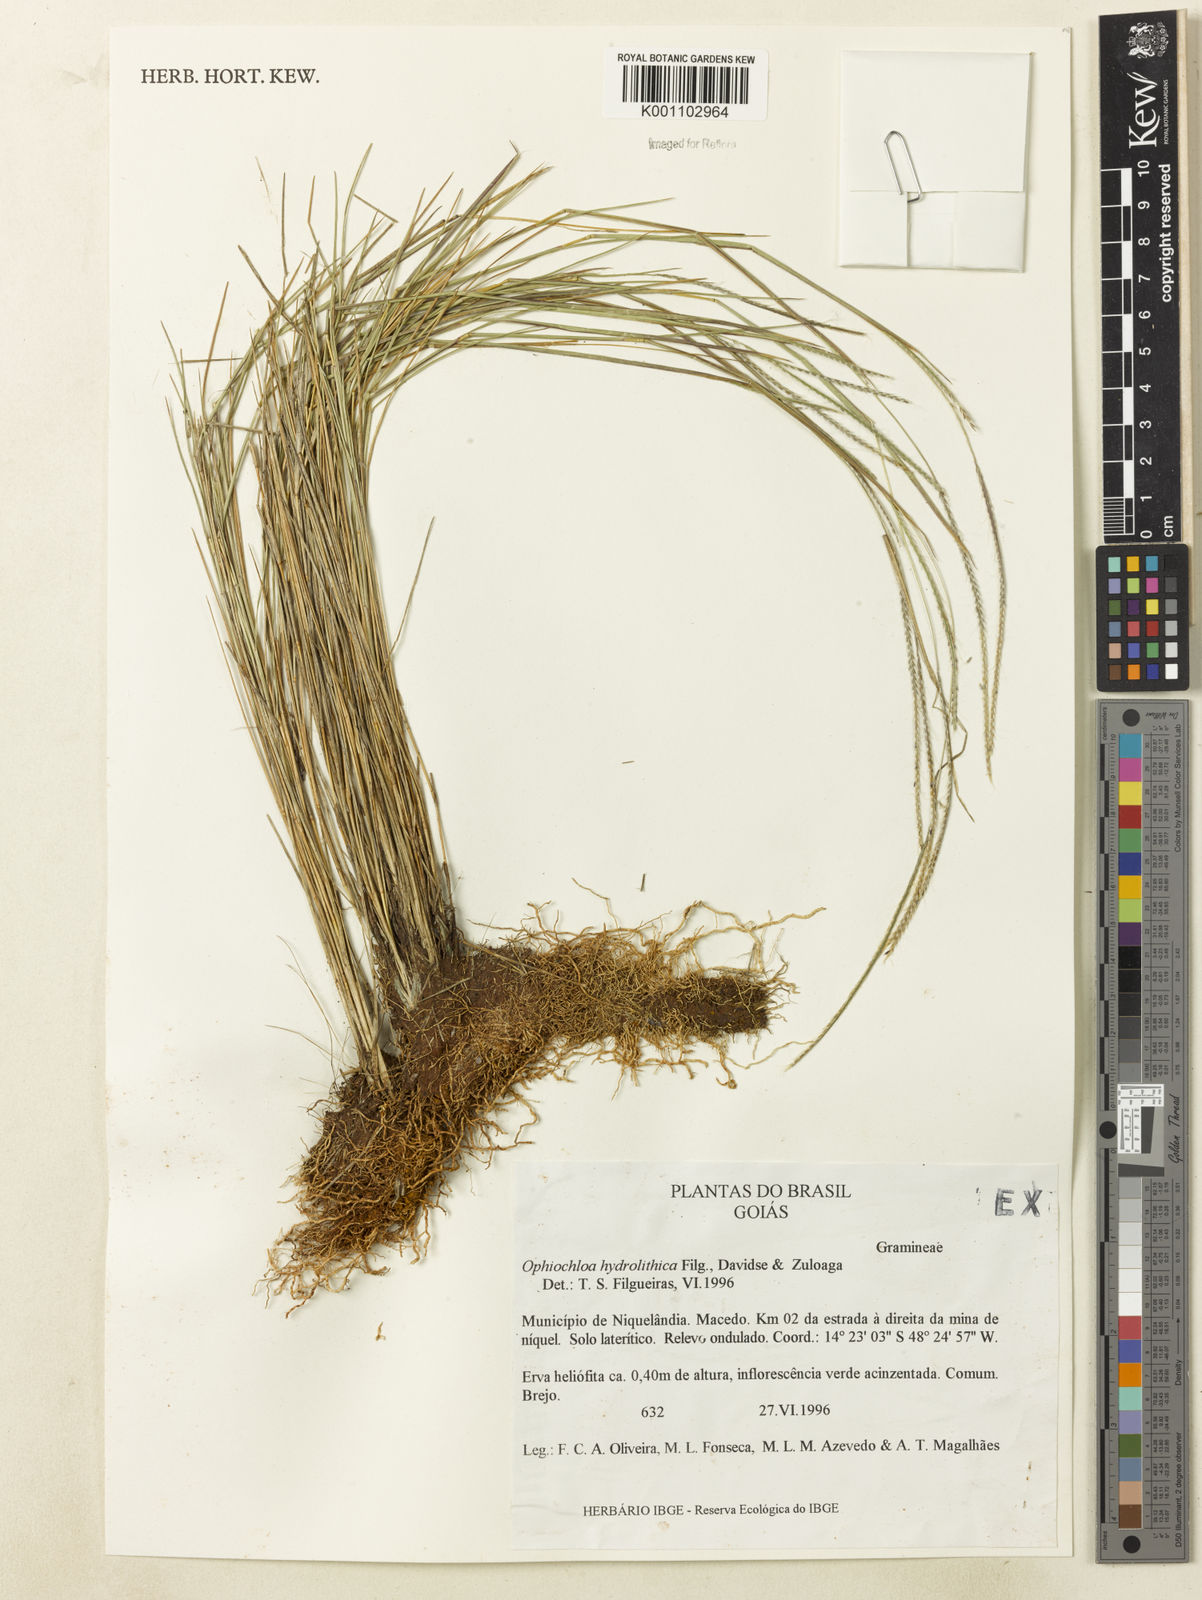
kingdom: Plantae
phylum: Tracheophyta
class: Liliopsida
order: Poales
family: Poaceae
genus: Axonopus
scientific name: Axonopus hydrolithicus
